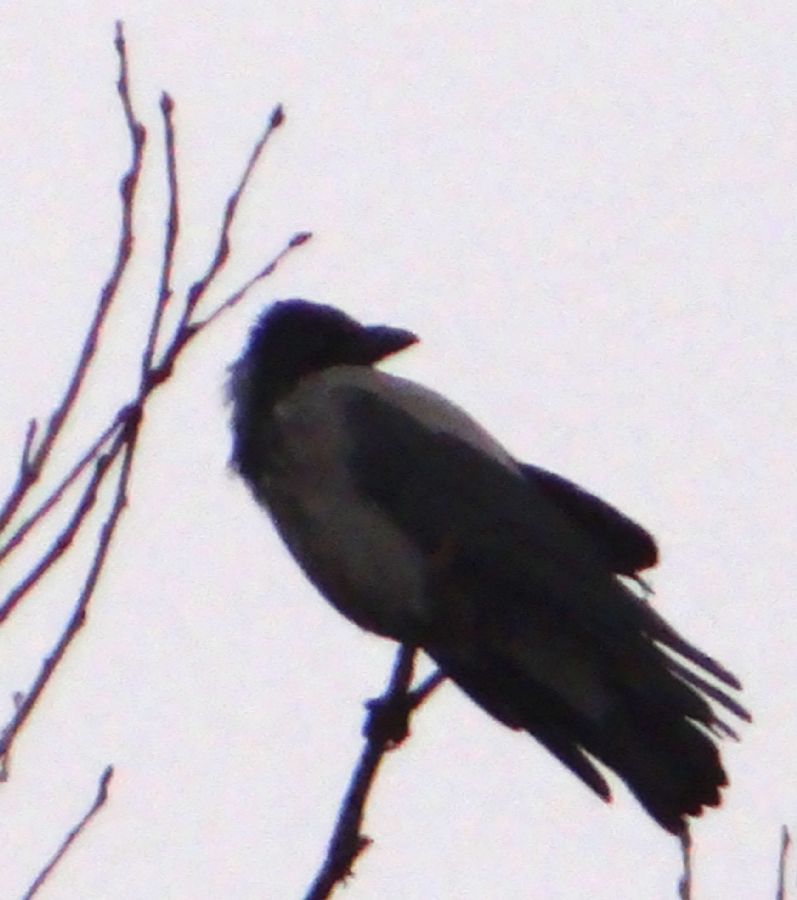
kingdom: Animalia
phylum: Chordata
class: Aves
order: Passeriformes
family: Corvidae
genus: Corvus
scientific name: Corvus cornix
